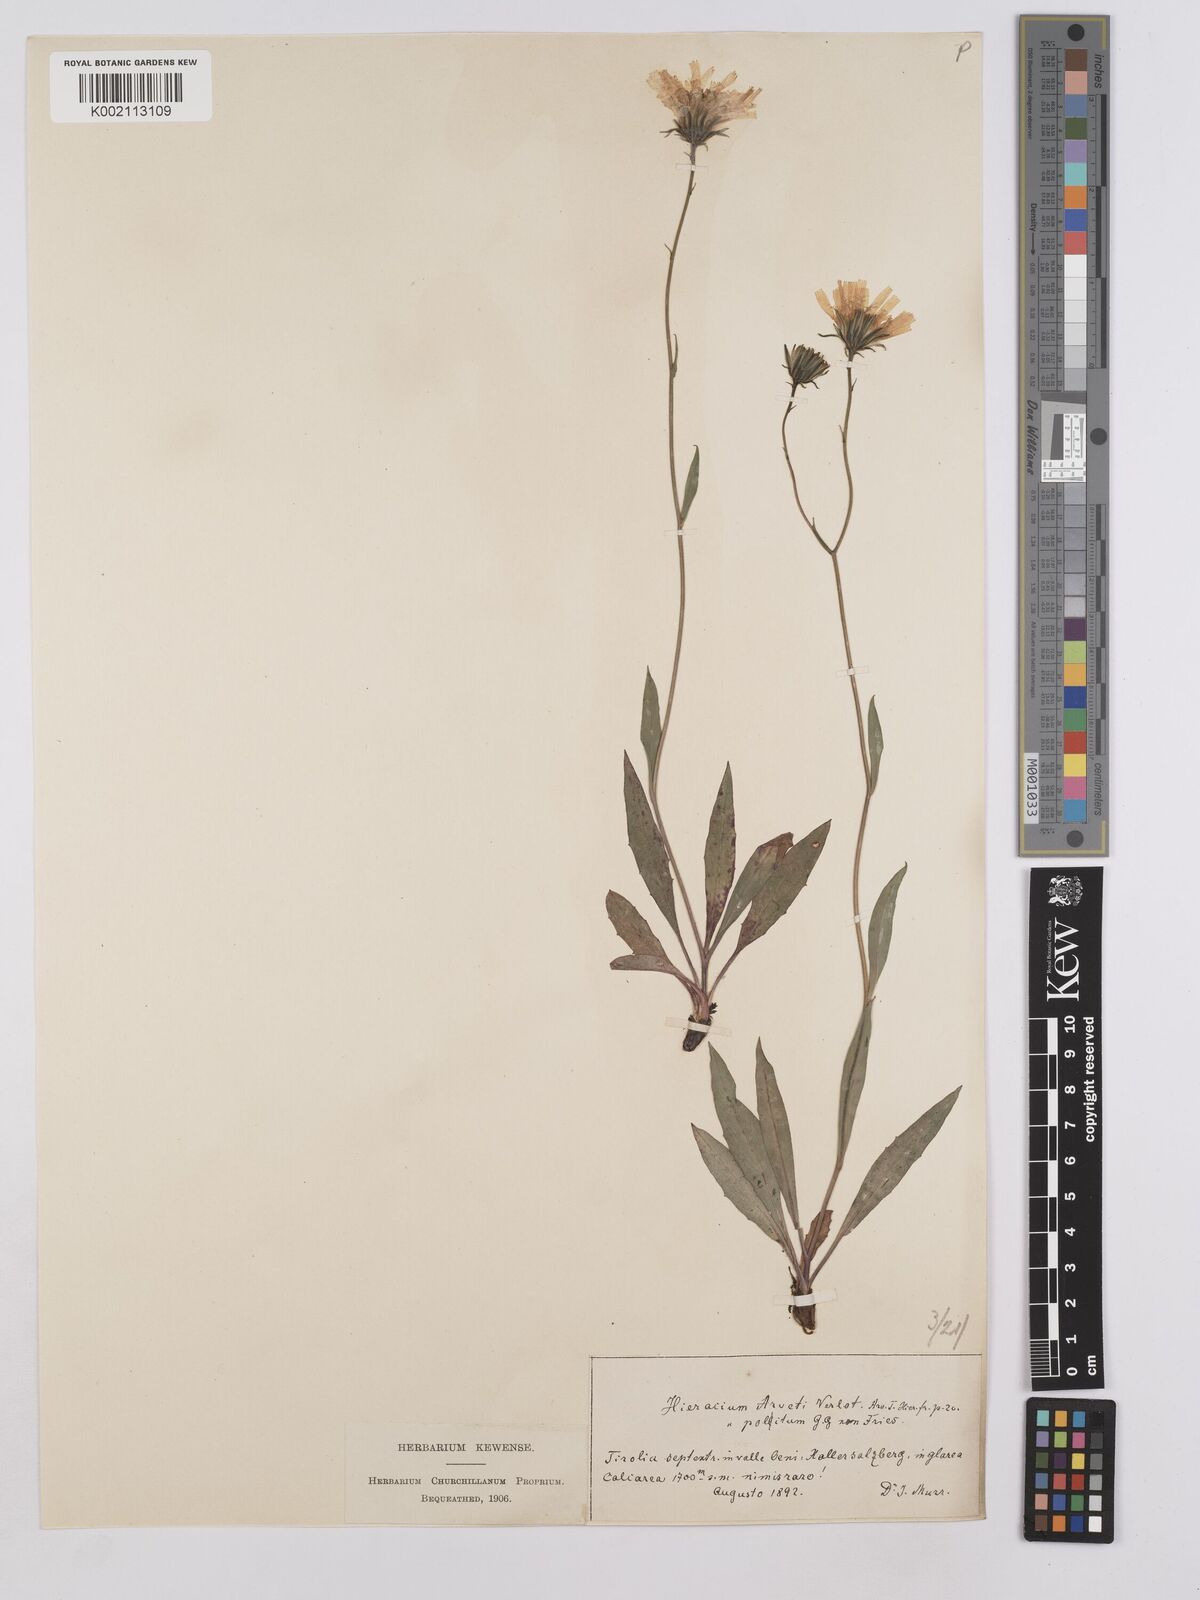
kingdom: Plantae
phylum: Tracheophyta
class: Magnoliopsida
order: Asterales
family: Asteraceae
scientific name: Asteraceae
